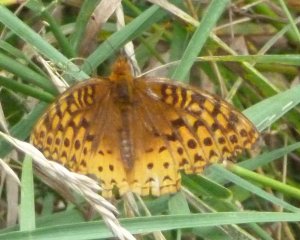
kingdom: Animalia
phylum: Arthropoda
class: Insecta
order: Lepidoptera
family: Nymphalidae
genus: Speyeria
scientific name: Speyeria cybele
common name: Great Spangled Fritillary
